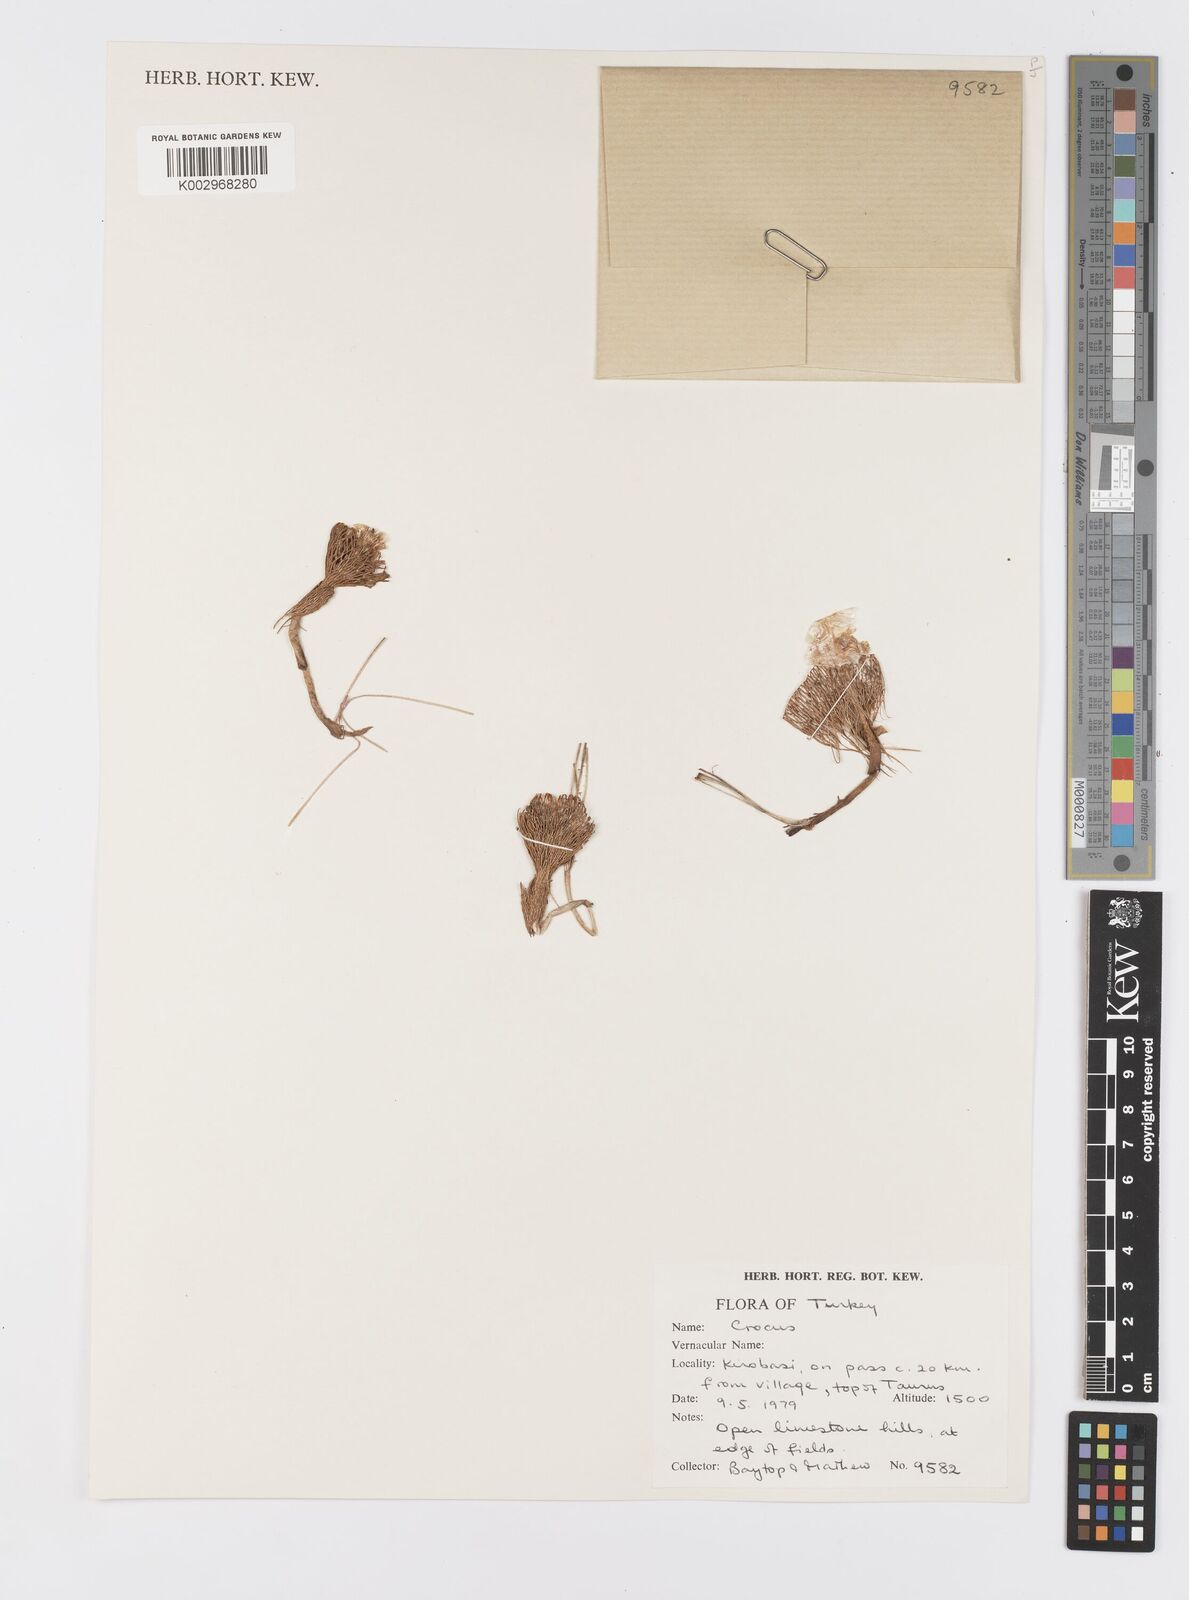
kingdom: Plantae
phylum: Tracheophyta
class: Liliopsida
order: Asparagales
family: Iridaceae
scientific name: Iridaceae
